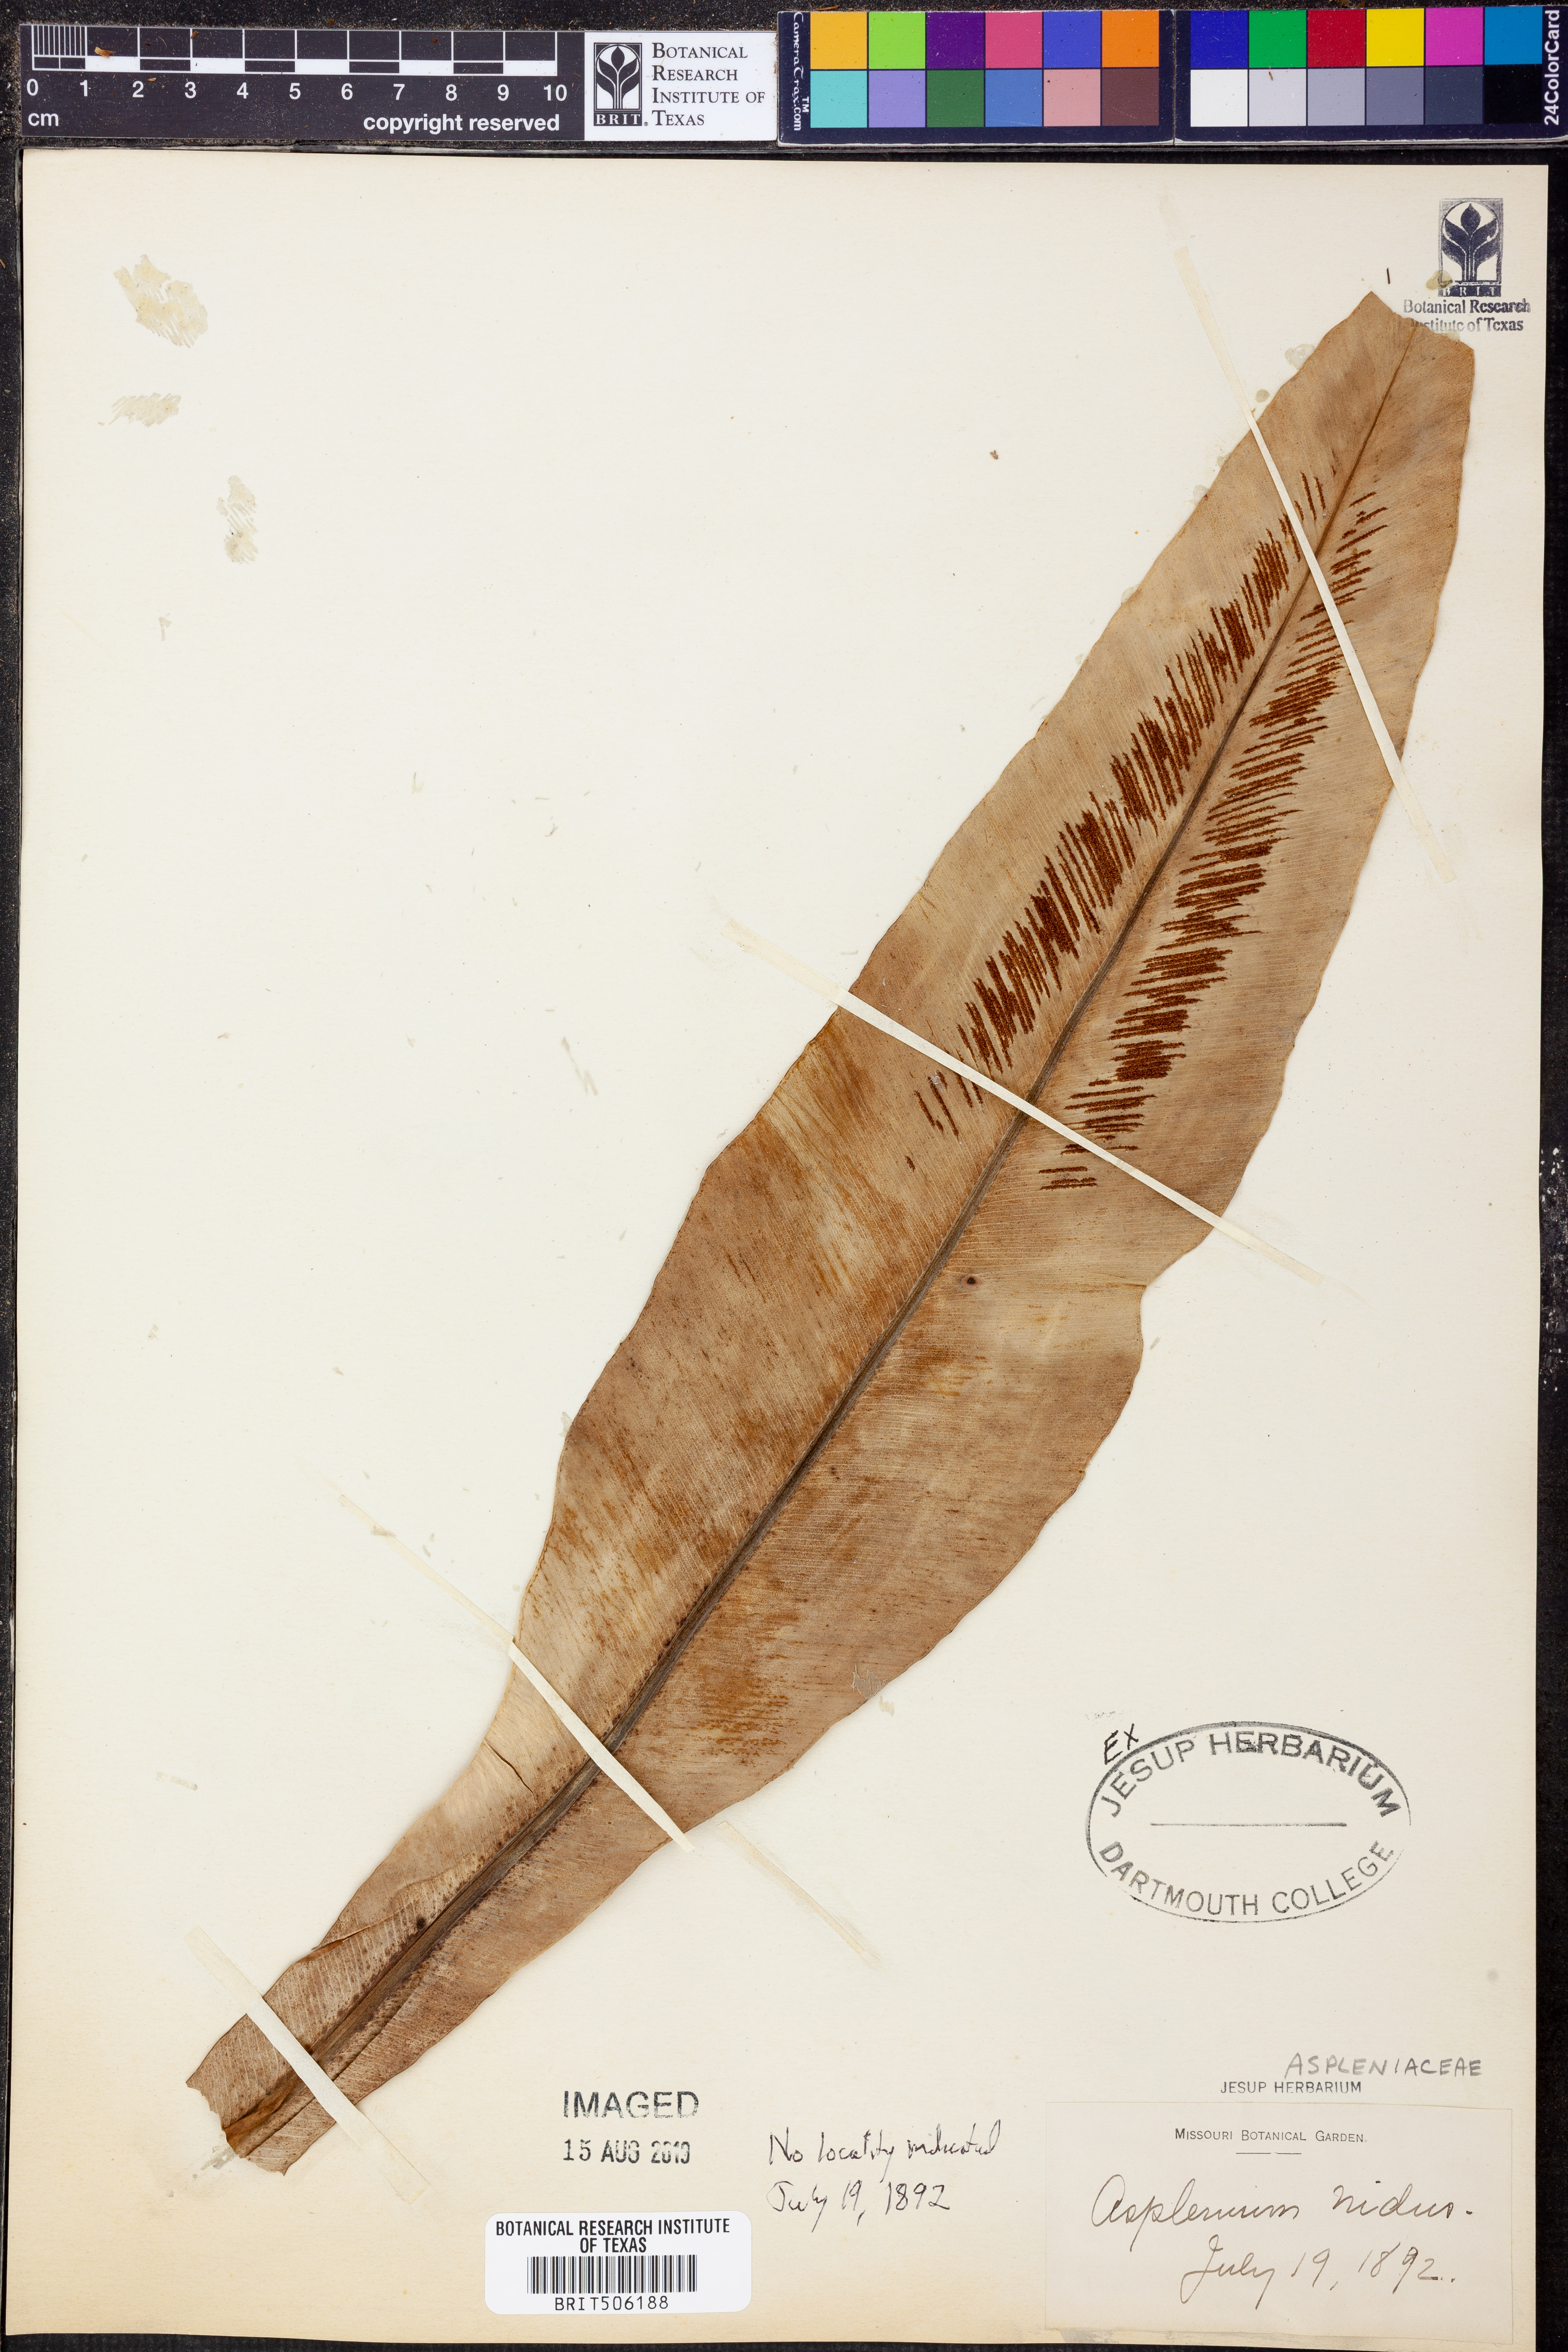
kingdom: Plantae
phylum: Tracheophyta
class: Polypodiopsida
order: Polypodiales
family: Aspleniaceae
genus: Asplenium
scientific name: Asplenium nidus
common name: Bird's-nest fern
